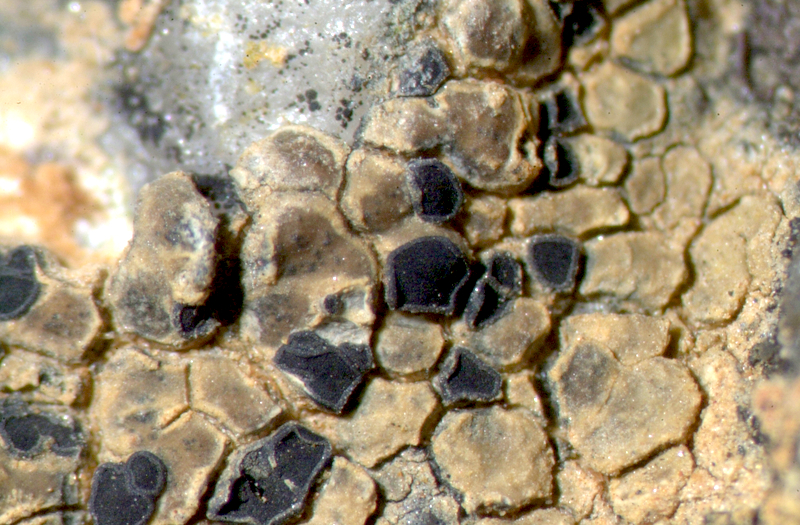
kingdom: Fungi
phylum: Ascomycota
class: Lecanoromycetes
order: Teloschistales
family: Teloschistaceae
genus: Caloplaca
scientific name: Caloplaca
